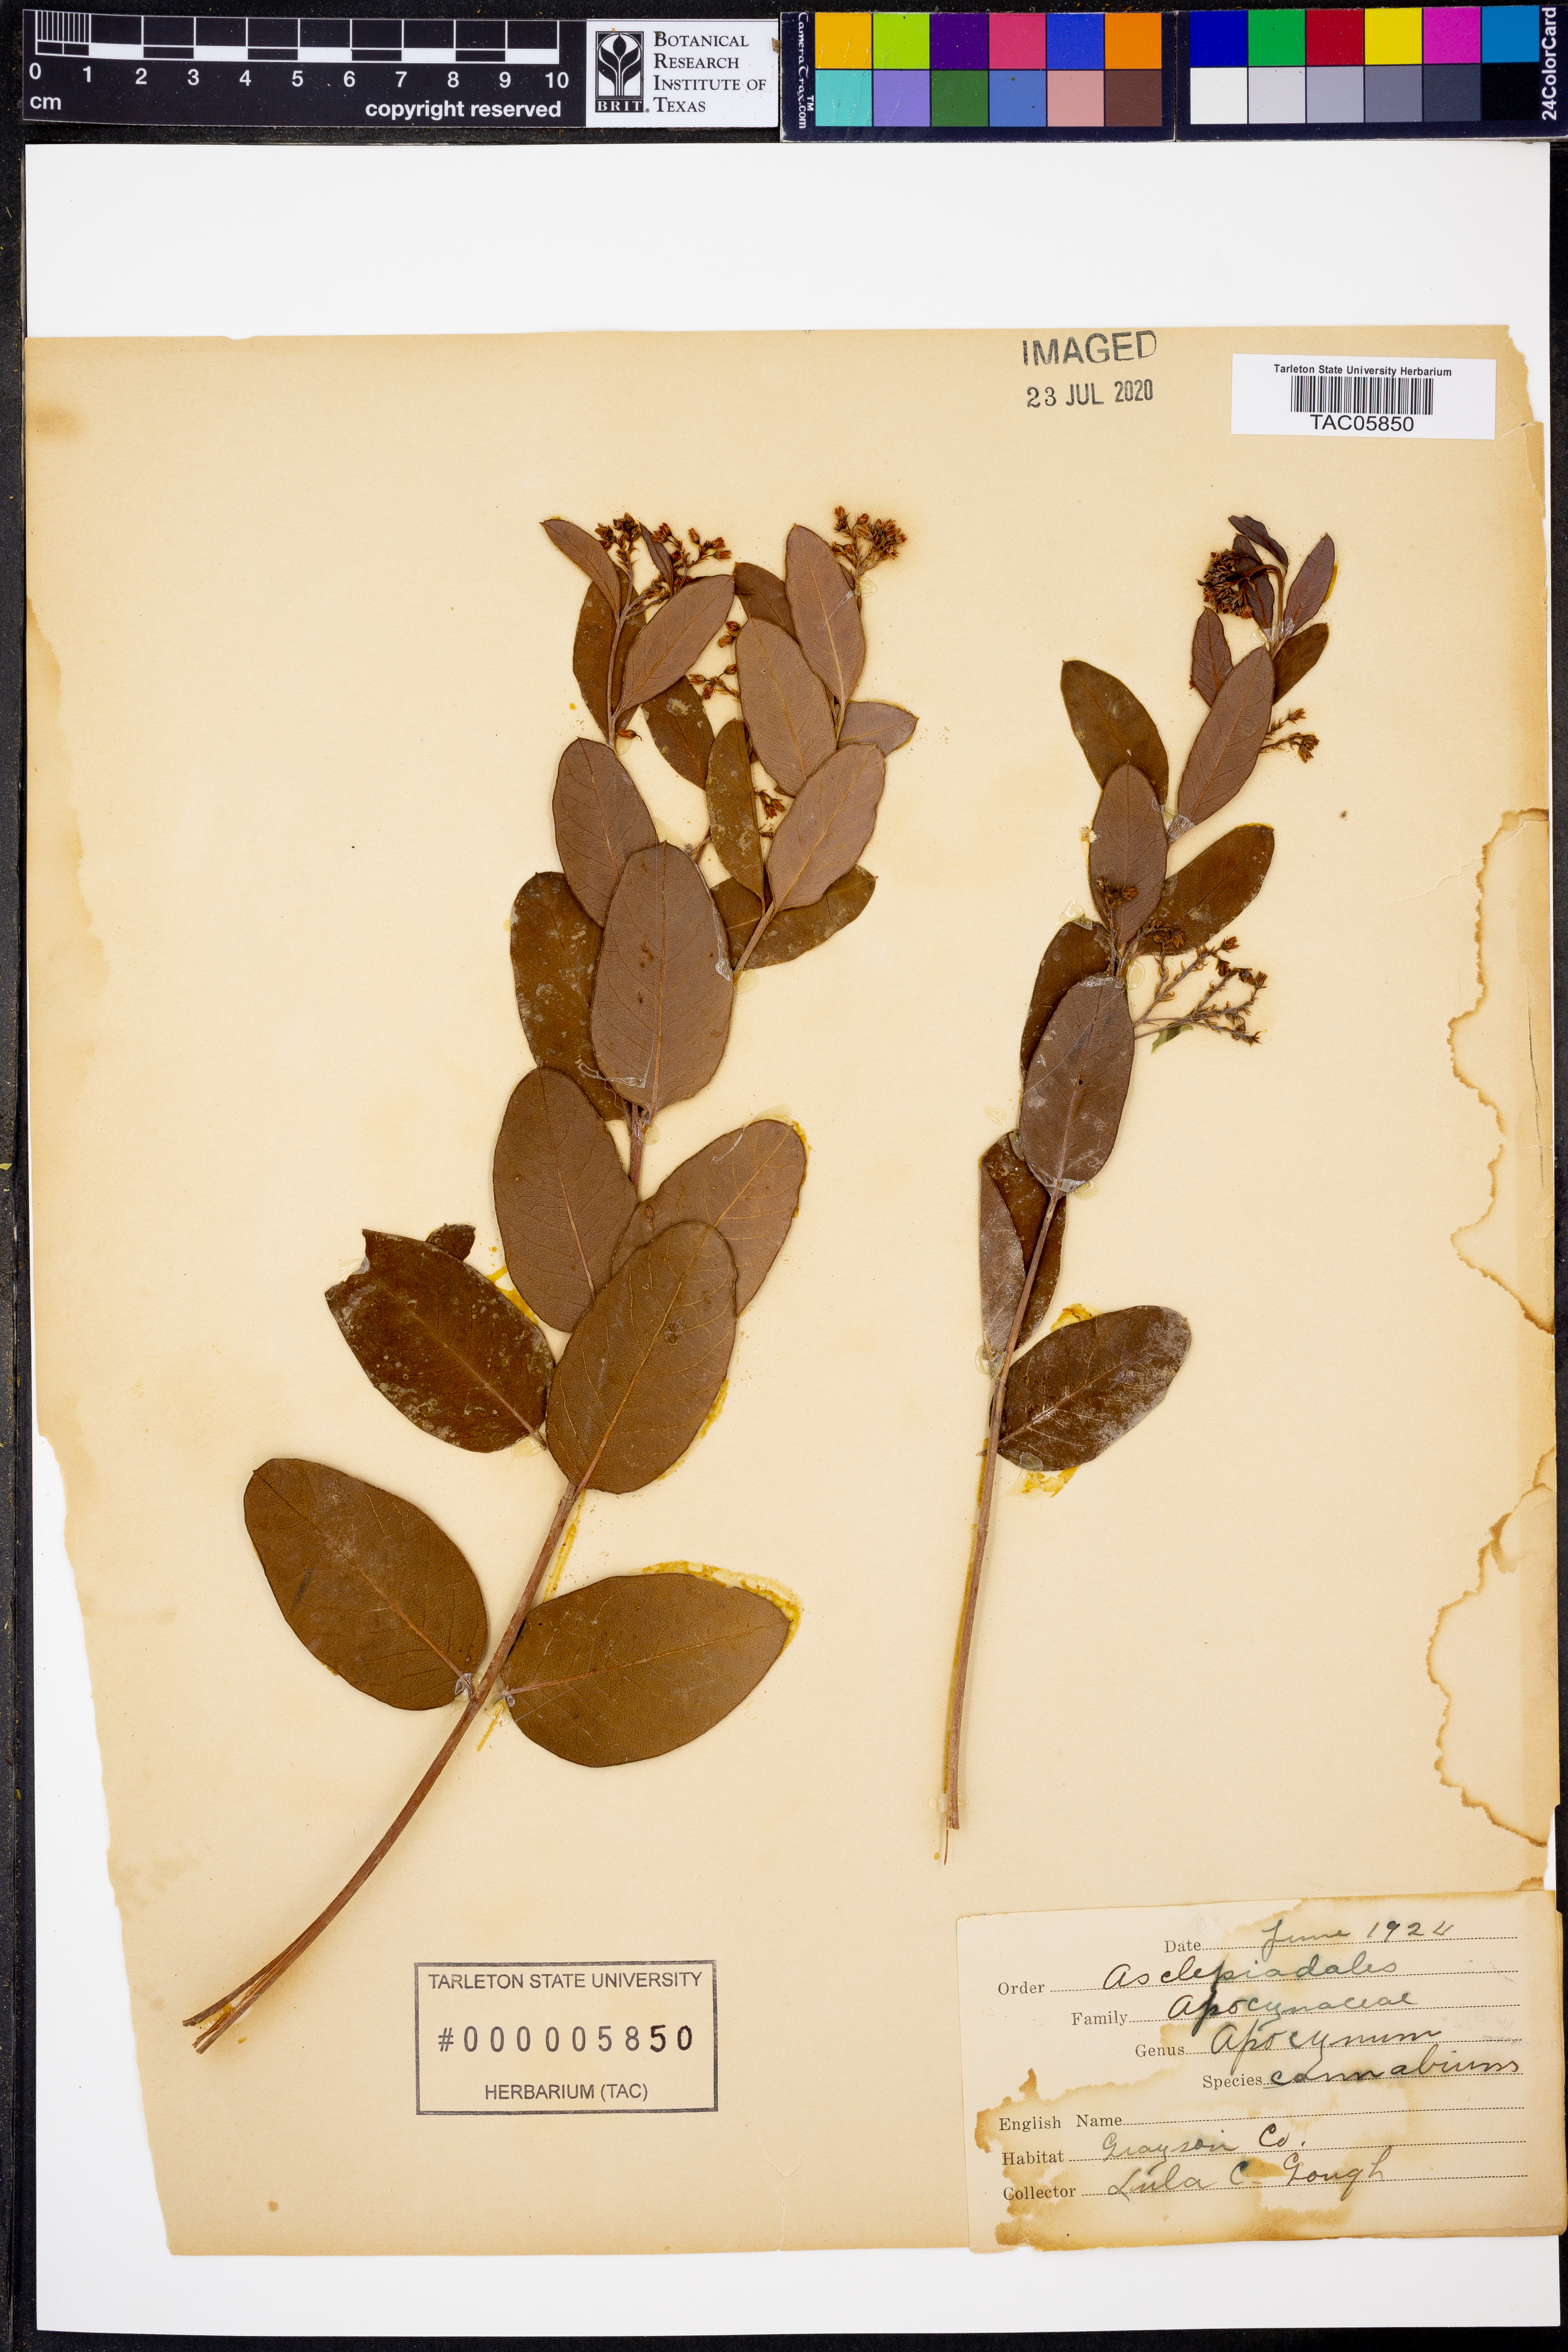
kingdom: Plantae
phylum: Tracheophyta
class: Magnoliopsida
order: Gentianales
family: Apocynaceae
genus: Apocynum
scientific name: Apocynum cannabinum
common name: Hemp dogbane
